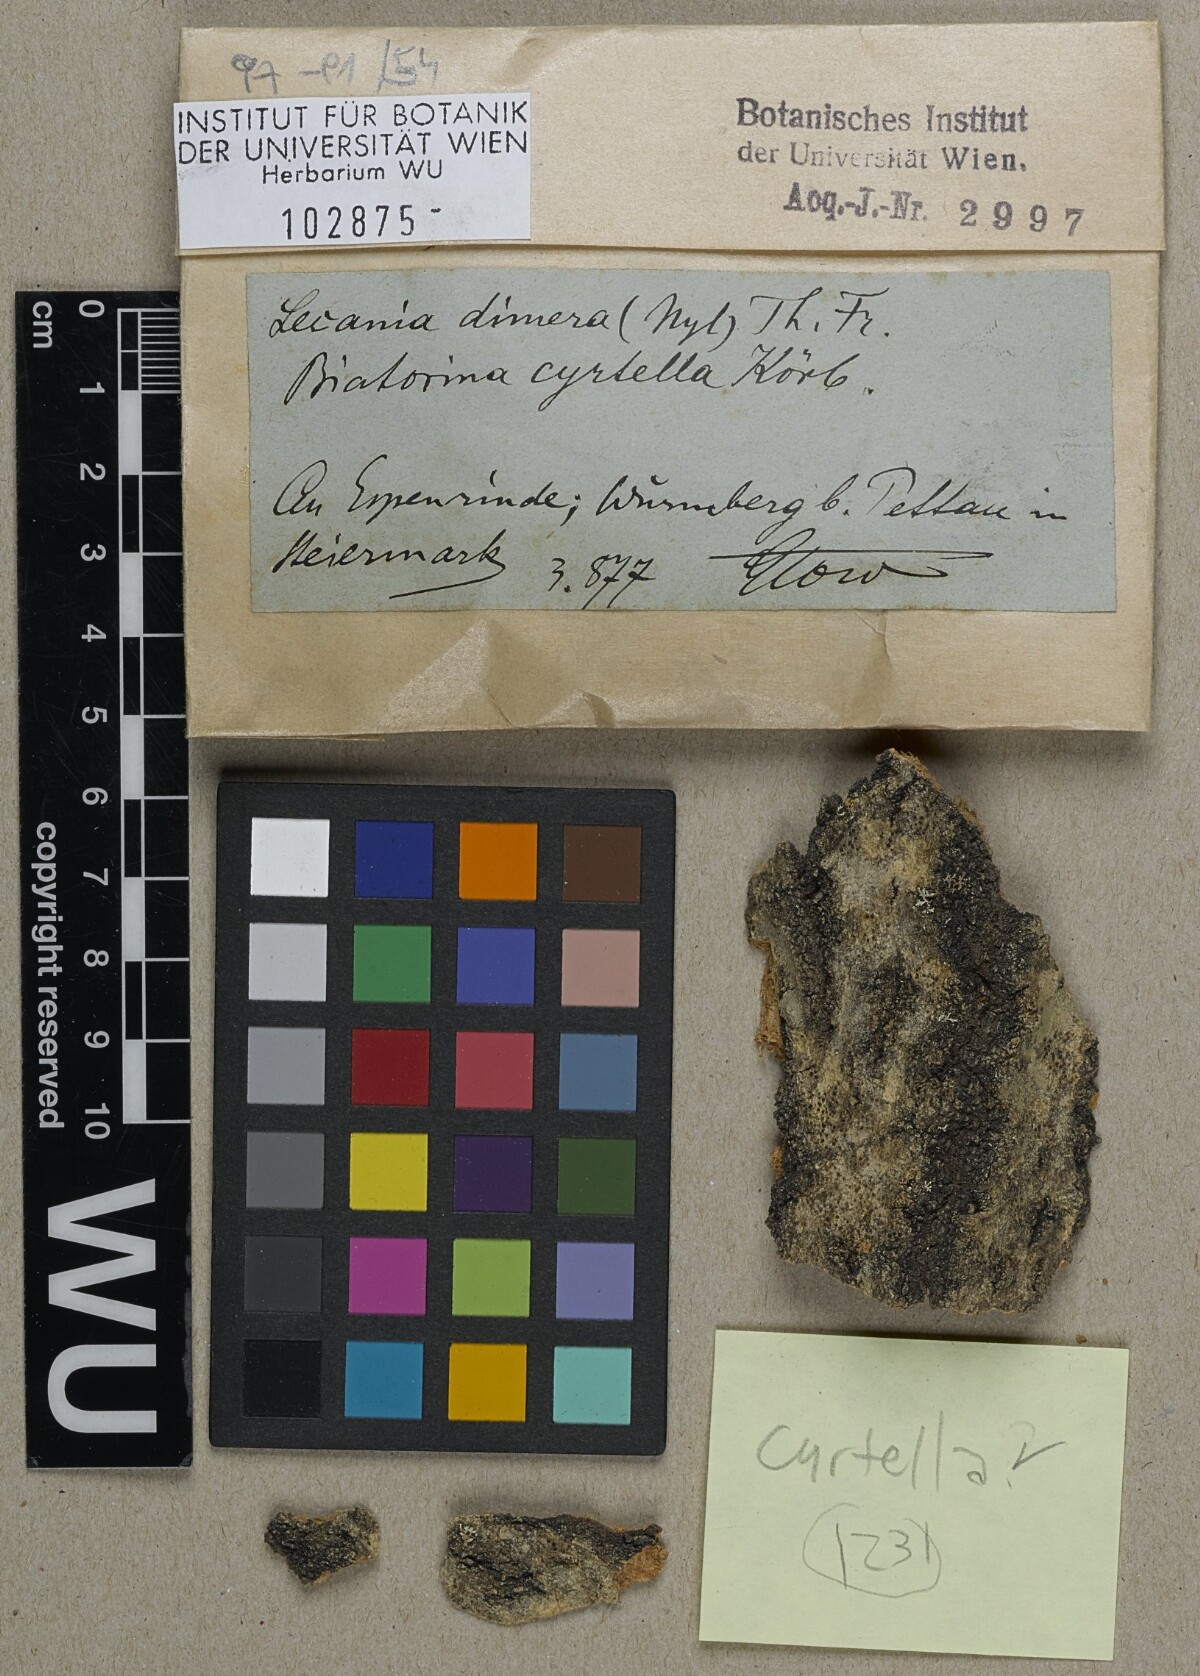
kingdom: Fungi
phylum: Ascomycota
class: Lecanoromycetes
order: Lecanorales
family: Ramalinaceae
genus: Lecania
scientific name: Lecania dubitans
